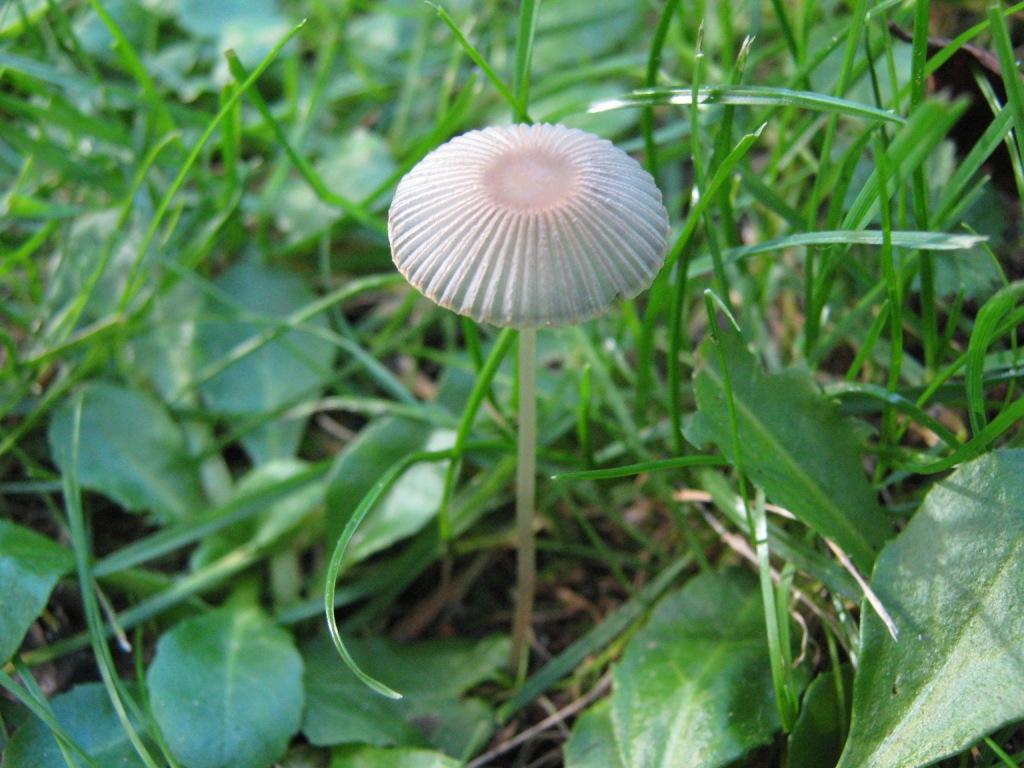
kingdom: Fungi
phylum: Basidiomycota
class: Agaricomycetes
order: Agaricales
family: Psathyrellaceae
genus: Parasola
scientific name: Parasola kuehneri
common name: skygge-hjulhat
